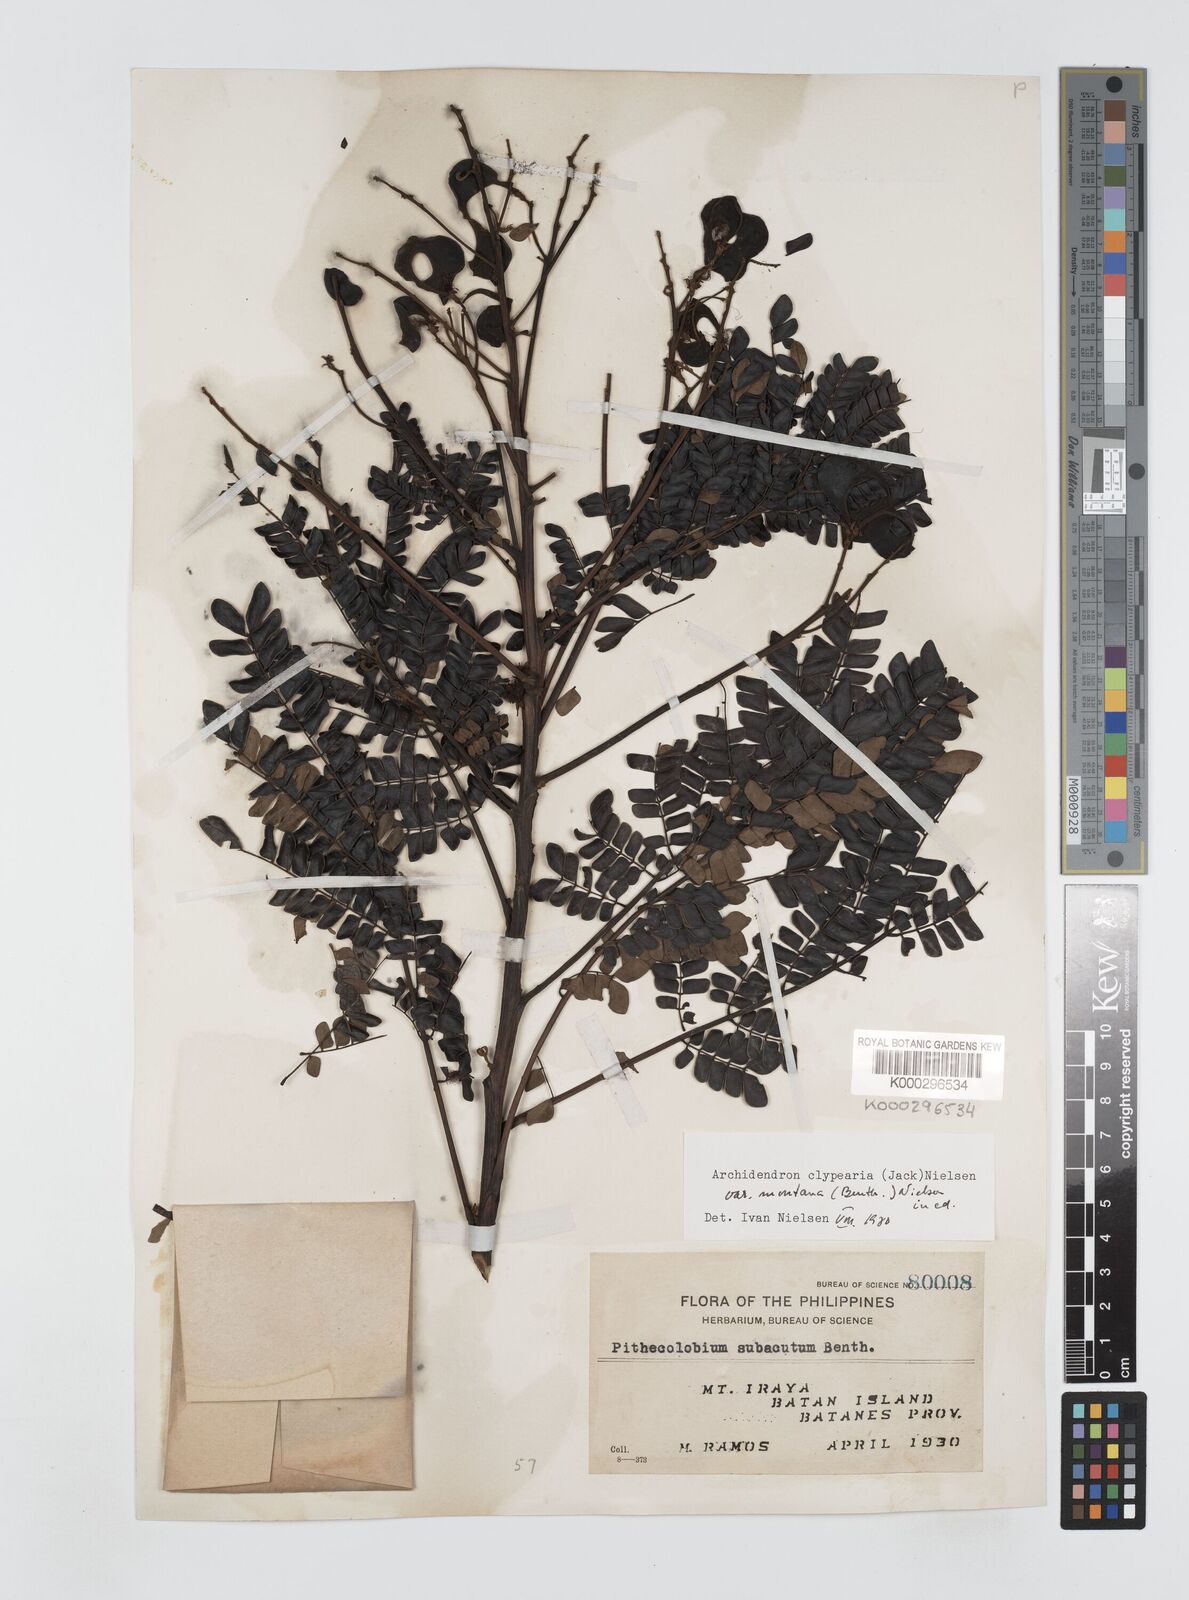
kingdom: Plantae
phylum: Tracheophyta
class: Magnoliopsida
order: Fabales
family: Fabaceae
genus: Archidendron
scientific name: Archidendron clypearia
